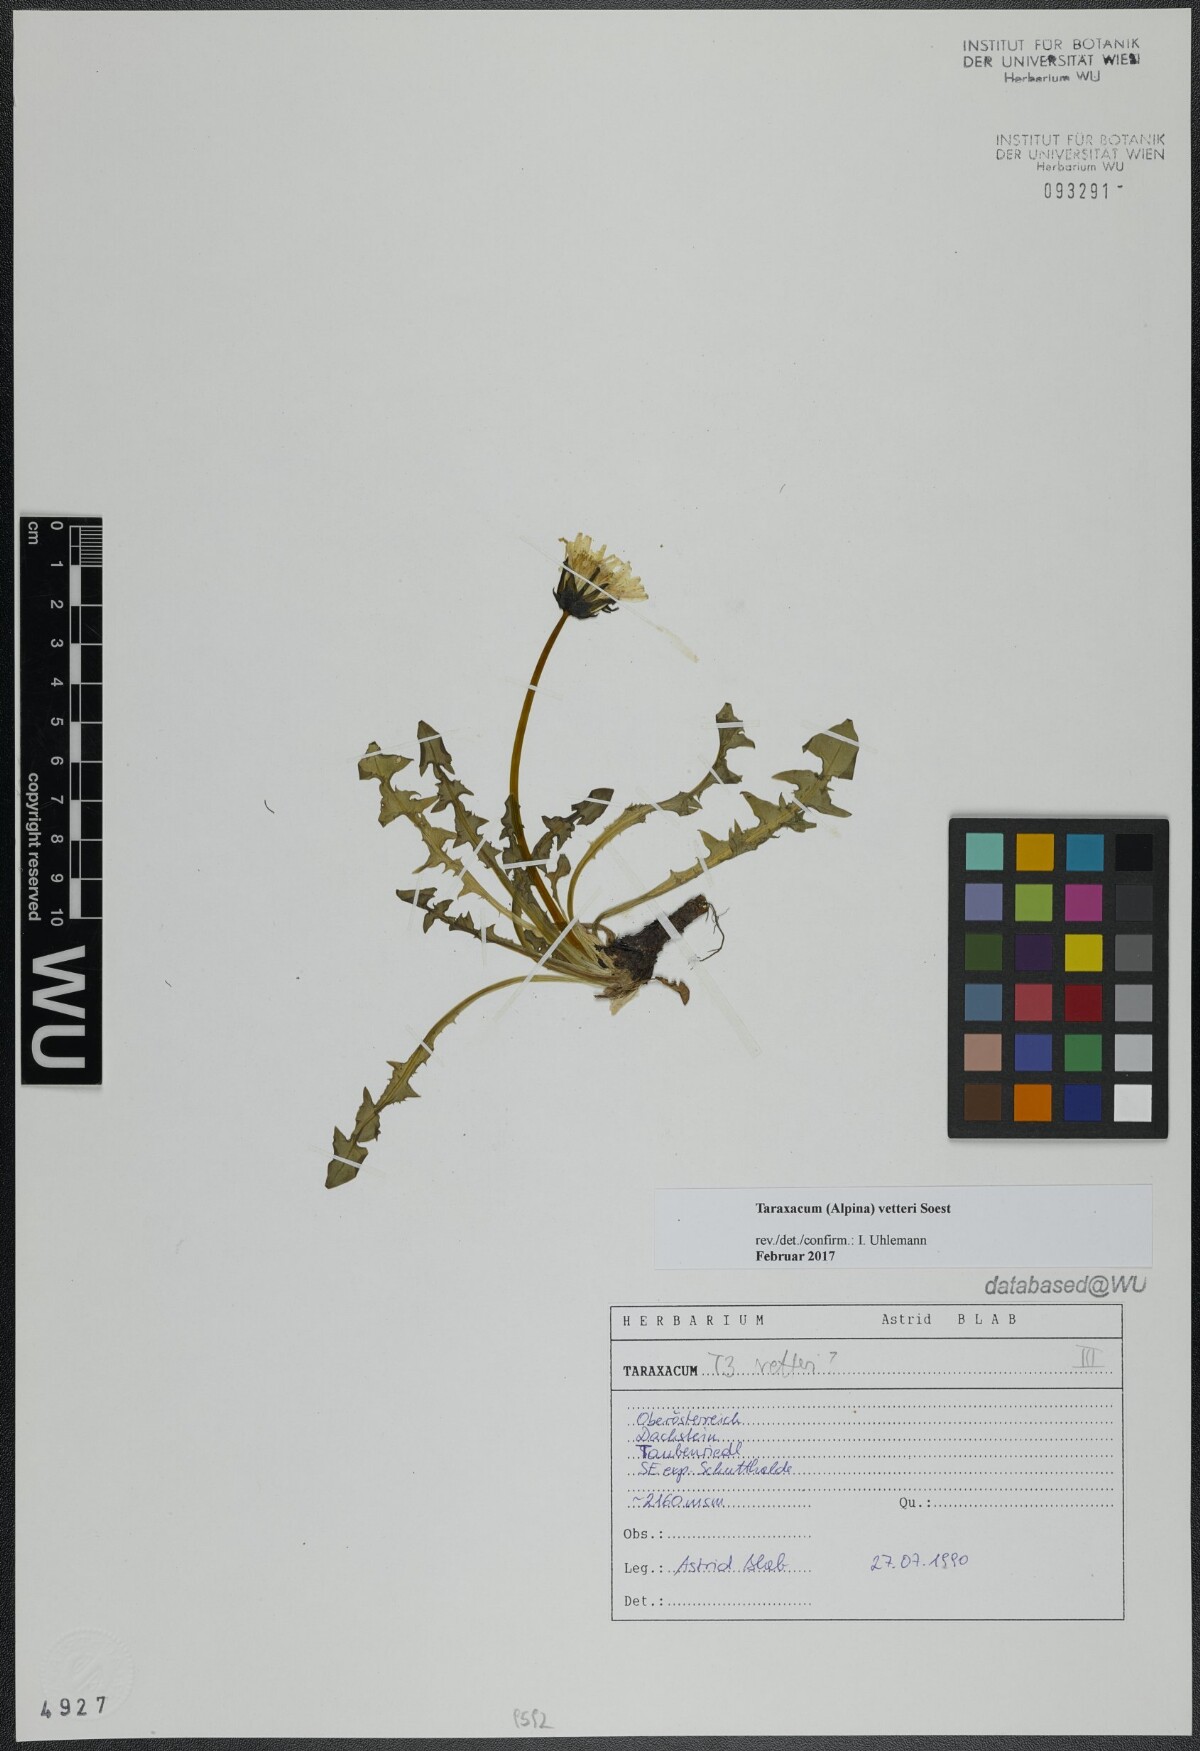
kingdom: Plantae
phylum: Tracheophyta
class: Magnoliopsida
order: Asterales
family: Asteraceae
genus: Taraxacum
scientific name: Taraxacum vetteri
